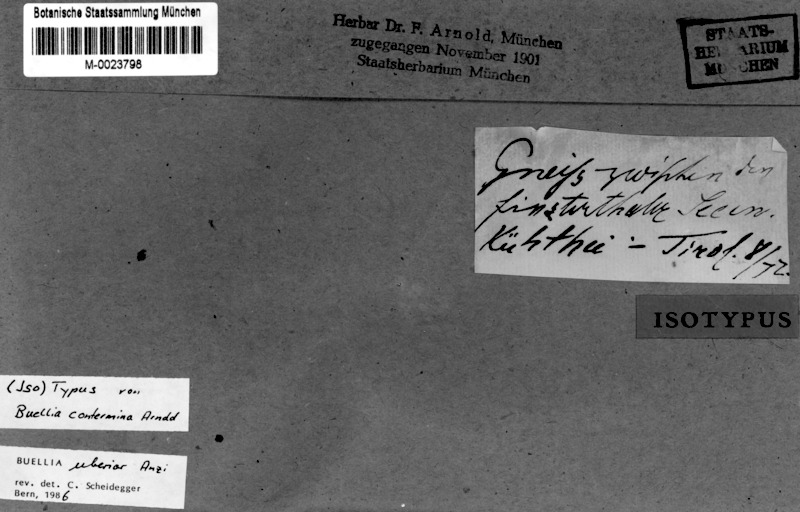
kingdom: Fungi
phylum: Ascomycota
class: Lecanoromycetes
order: Caliciales
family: Caliciaceae
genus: Buellia
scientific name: Buellia uberior
